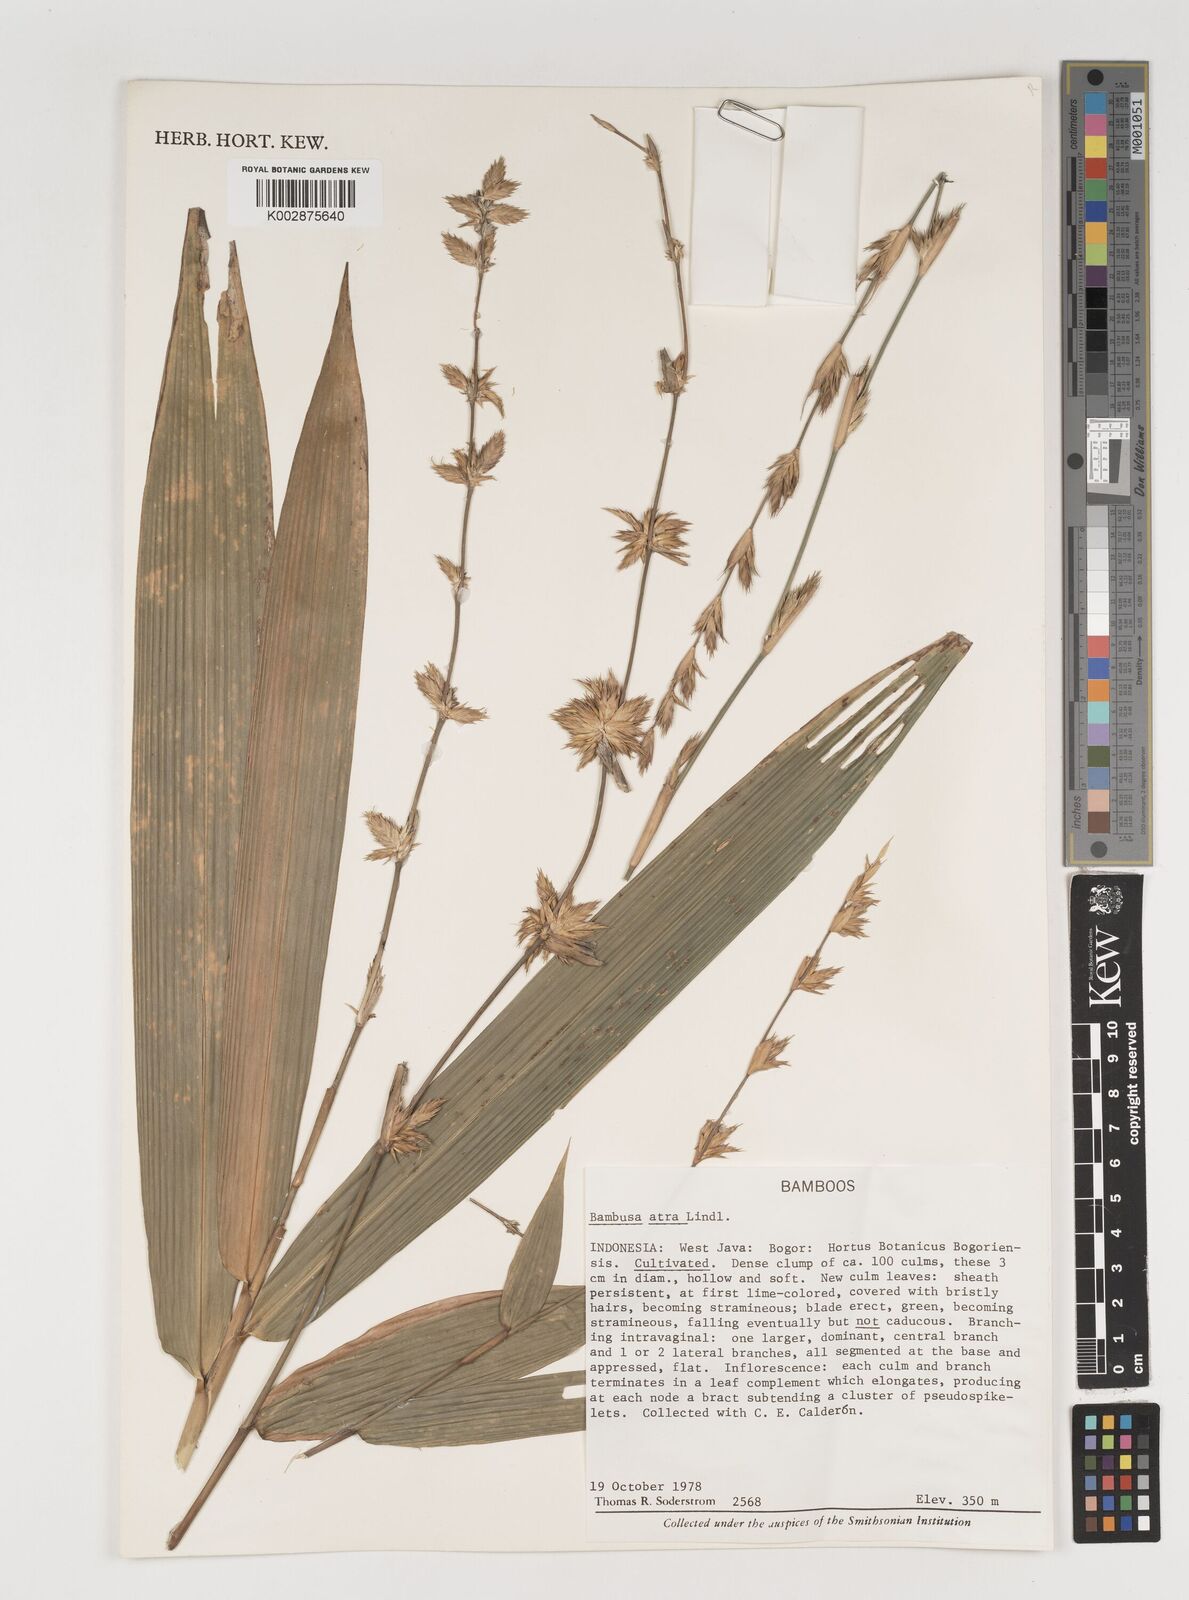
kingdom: Plantae
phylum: Tracheophyta
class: Liliopsida
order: Poales
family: Poaceae
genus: Neololeba
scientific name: Neololeba atra
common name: Cape bamboo
